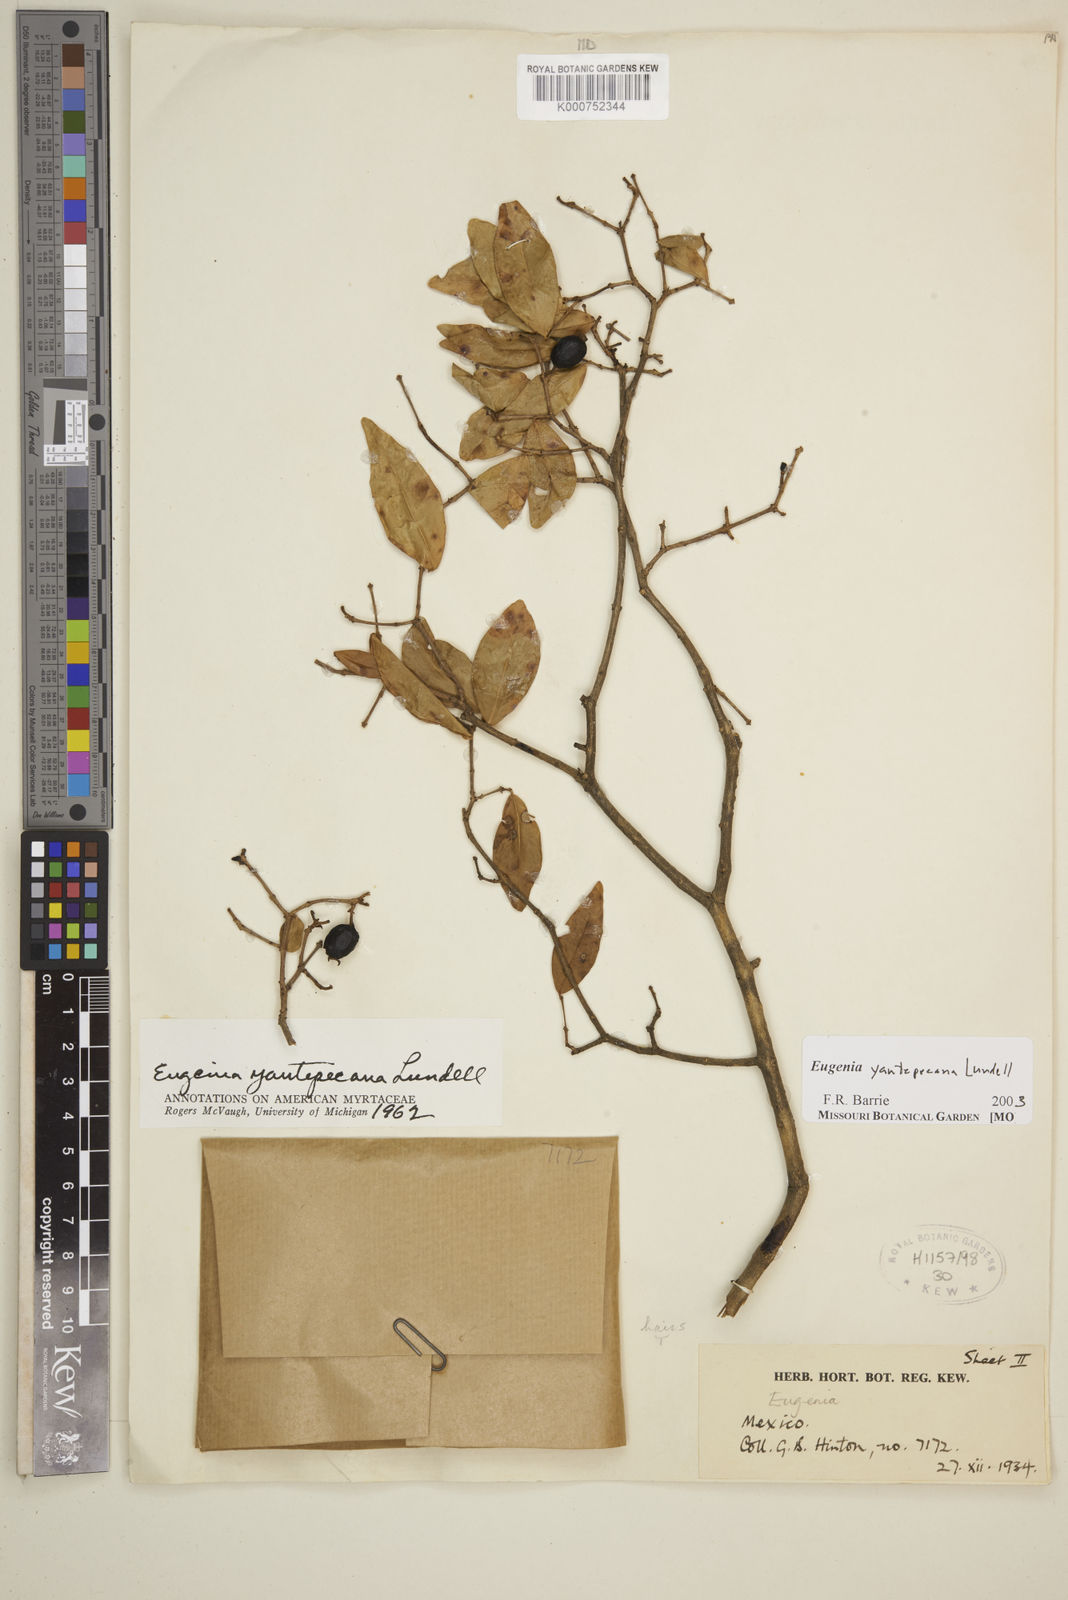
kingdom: Plantae
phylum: Tracheophyta
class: Magnoliopsida
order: Myrtales
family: Myrtaceae
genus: Eugenia
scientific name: Eugenia yautepecana
